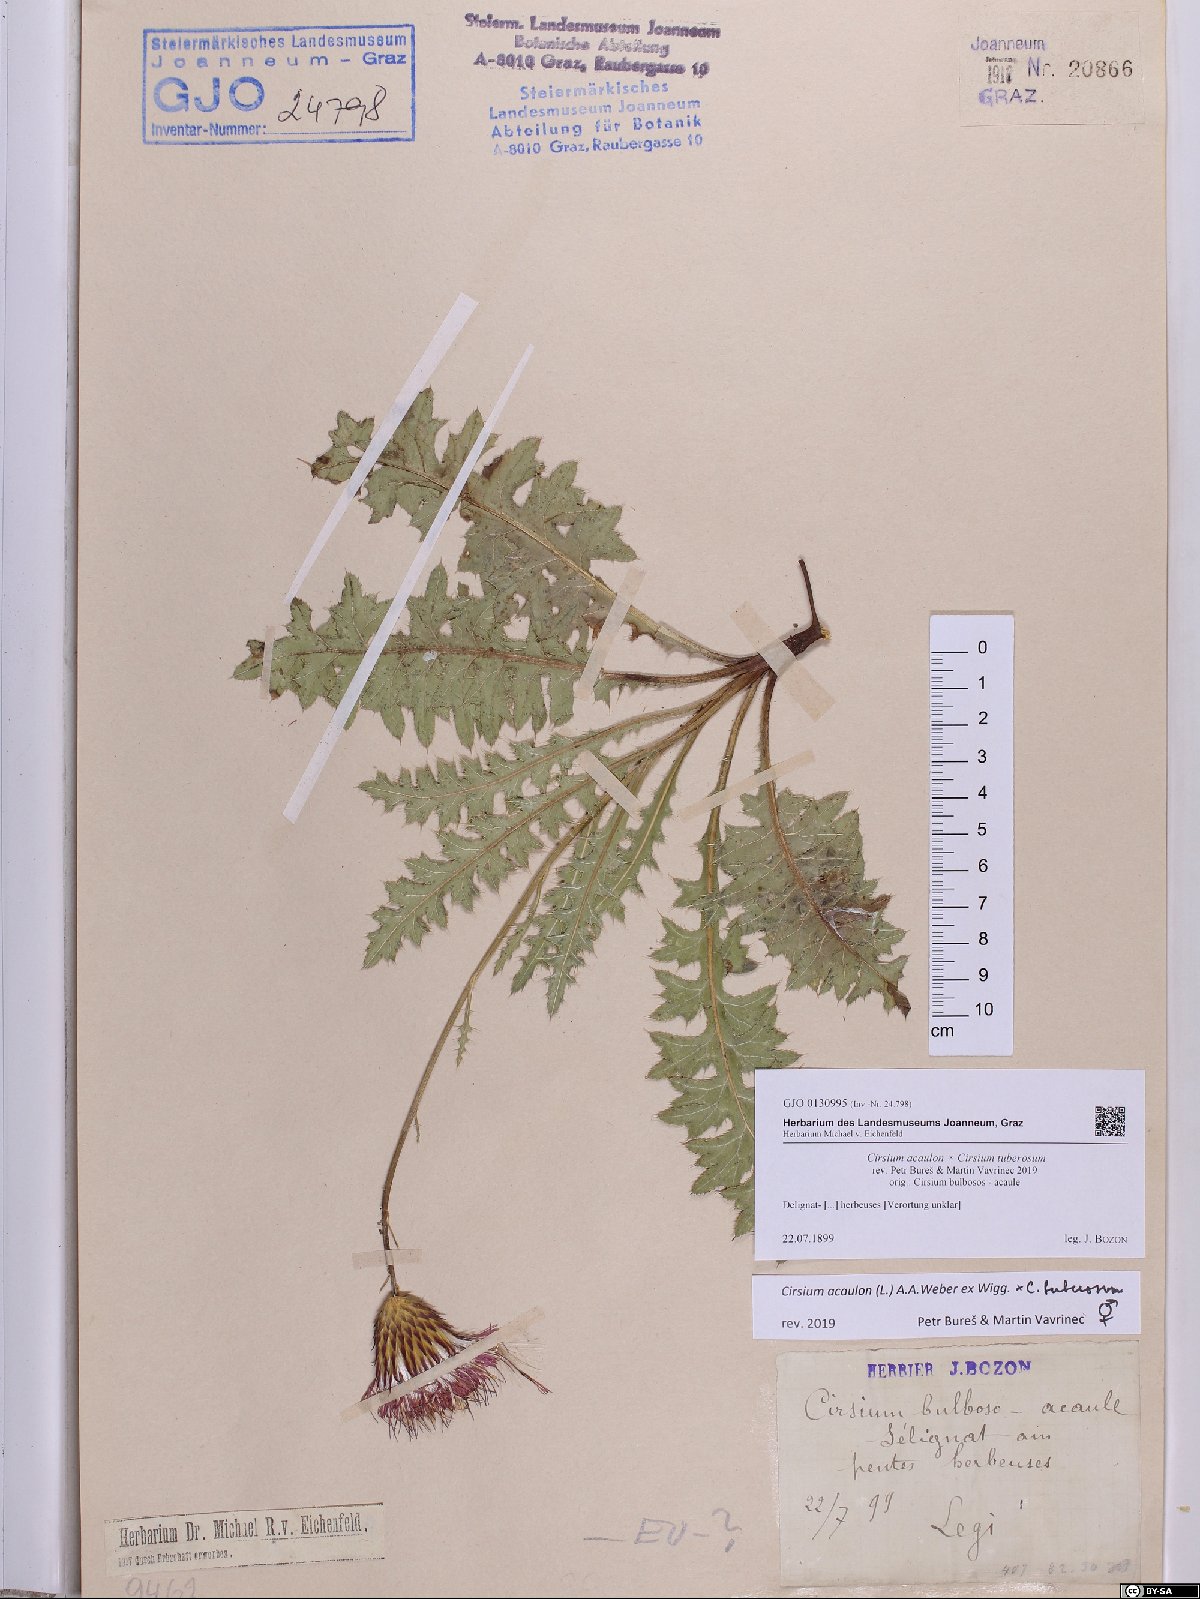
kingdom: Plantae
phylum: Tracheophyta
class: Magnoliopsida
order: Asterales
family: Asteraceae
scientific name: Asteraceae
